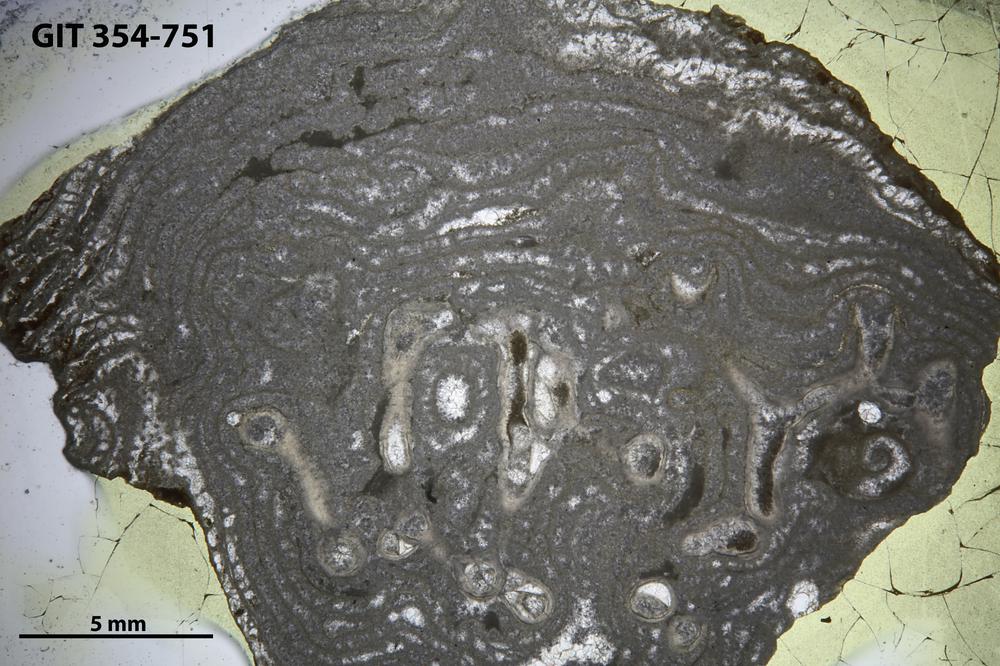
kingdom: Animalia
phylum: Porifera
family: Stromatoporellidae
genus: Simplexodictyon
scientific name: Simplexodictyon
